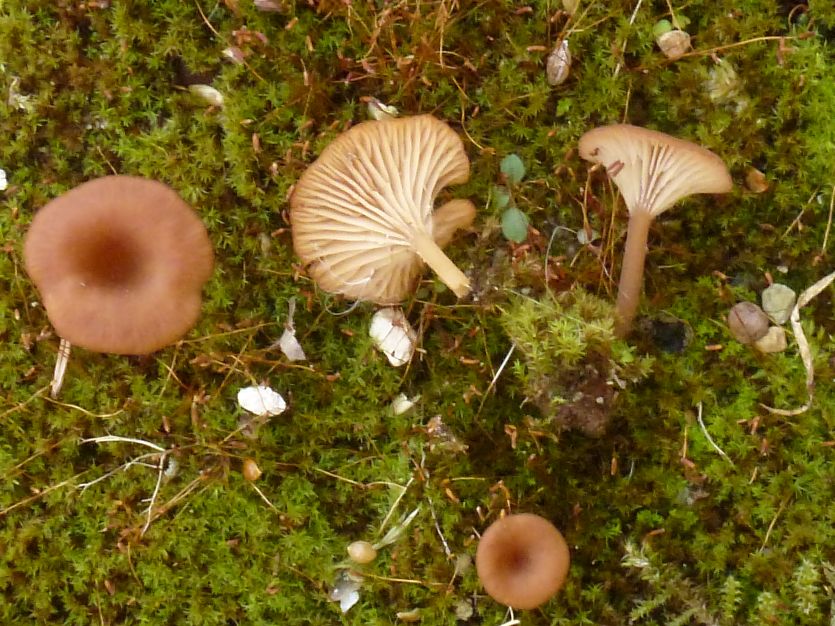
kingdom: Fungi
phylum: Basidiomycota
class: Agaricomycetes
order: Agaricales
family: Tricholomataceae
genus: Omphalina
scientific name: Omphalina pyxidata
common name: rødbrun navlehat
